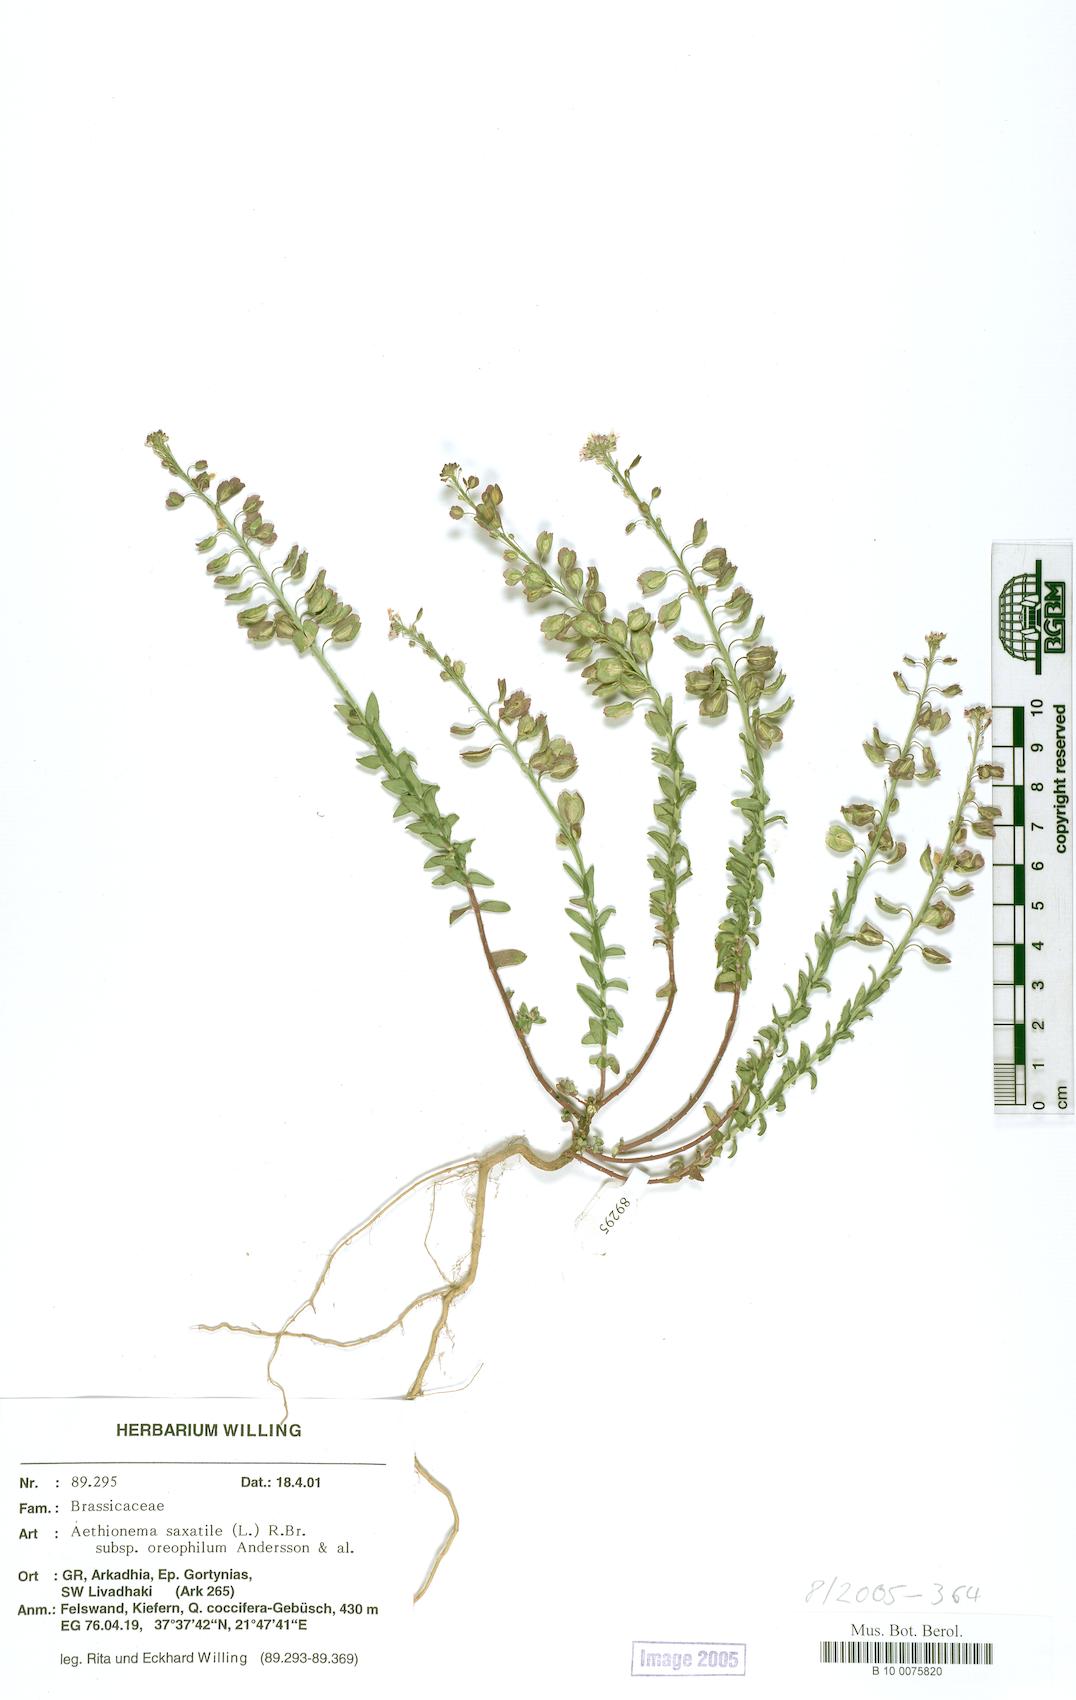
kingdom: Plantae
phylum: Tracheophyta
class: Magnoliopsida
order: Brassicales
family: Brassicaceae
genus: Aethionema
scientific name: Aethionema saxatile
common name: Burnt candytuft
